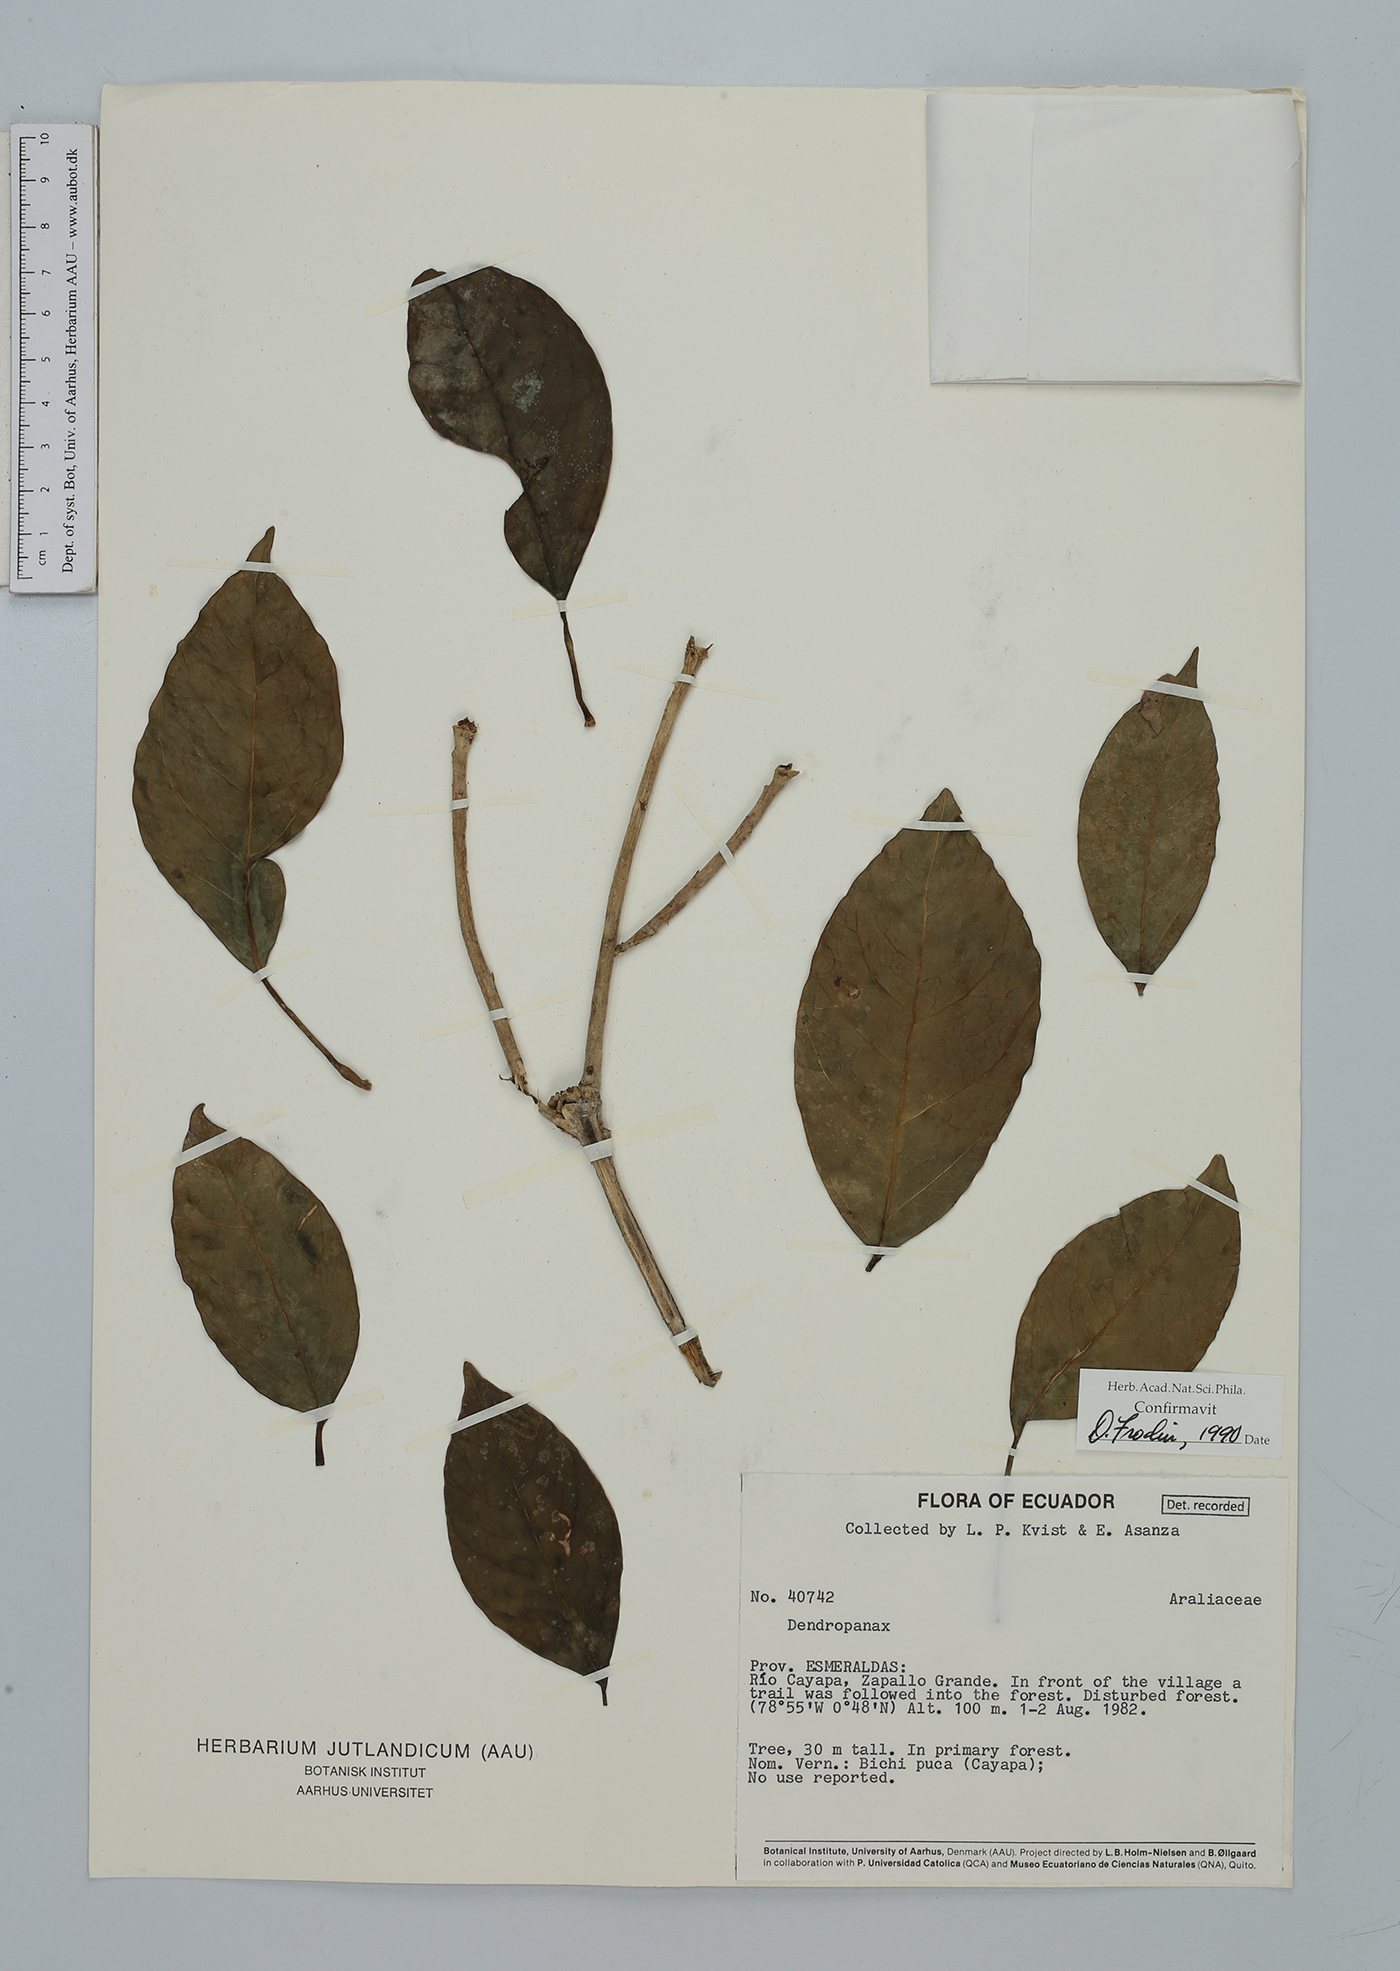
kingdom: Plantae
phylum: Tracheophyta
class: Magnoliopsida
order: Apiales
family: Araliaceae
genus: Dendropanax
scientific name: Dendropanax
